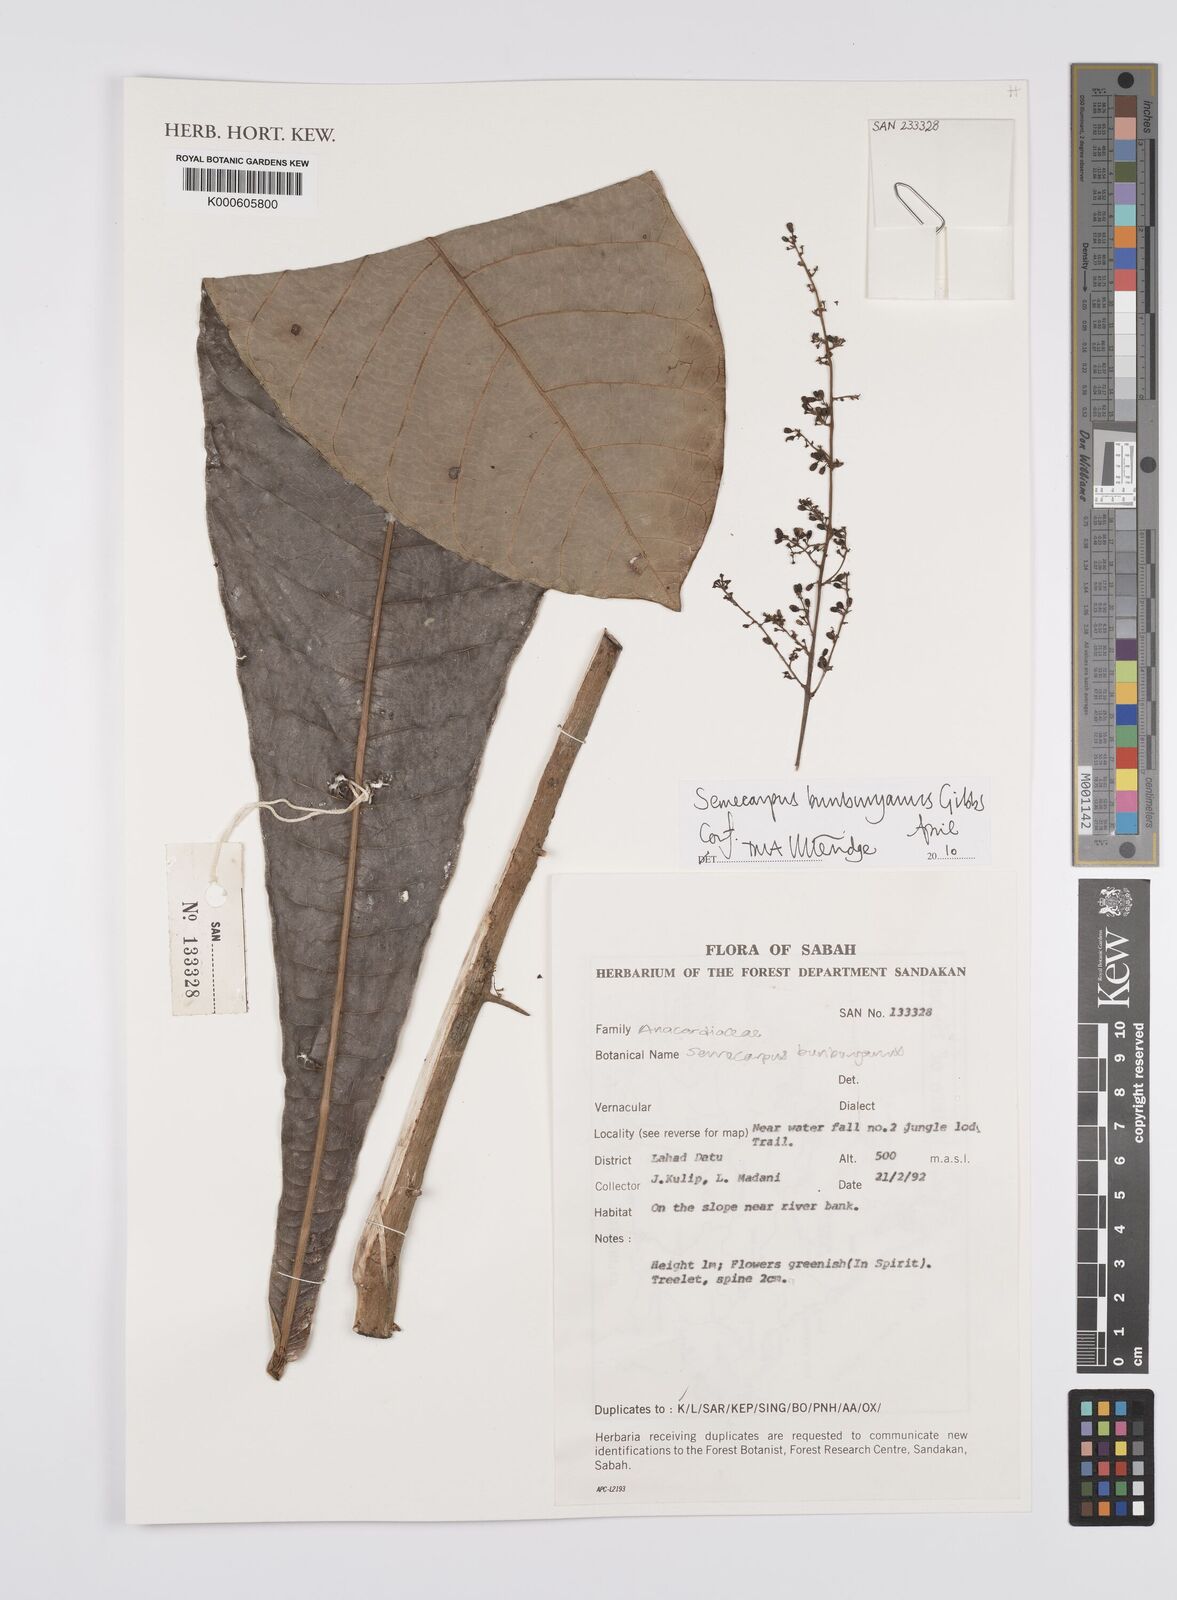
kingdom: Plantae
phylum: Tracheophyta
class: Magnoliopsida
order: Sapindales
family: Anacardiaceae
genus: Semecarpus
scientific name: Semecarpus bunburyanus
